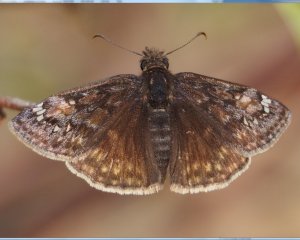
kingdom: Animalia
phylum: Arthropoda
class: Insecta
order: Lepidoptera
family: Hesperiidae
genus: Gesta
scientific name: Gesta
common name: Juvenal's Duskywing
